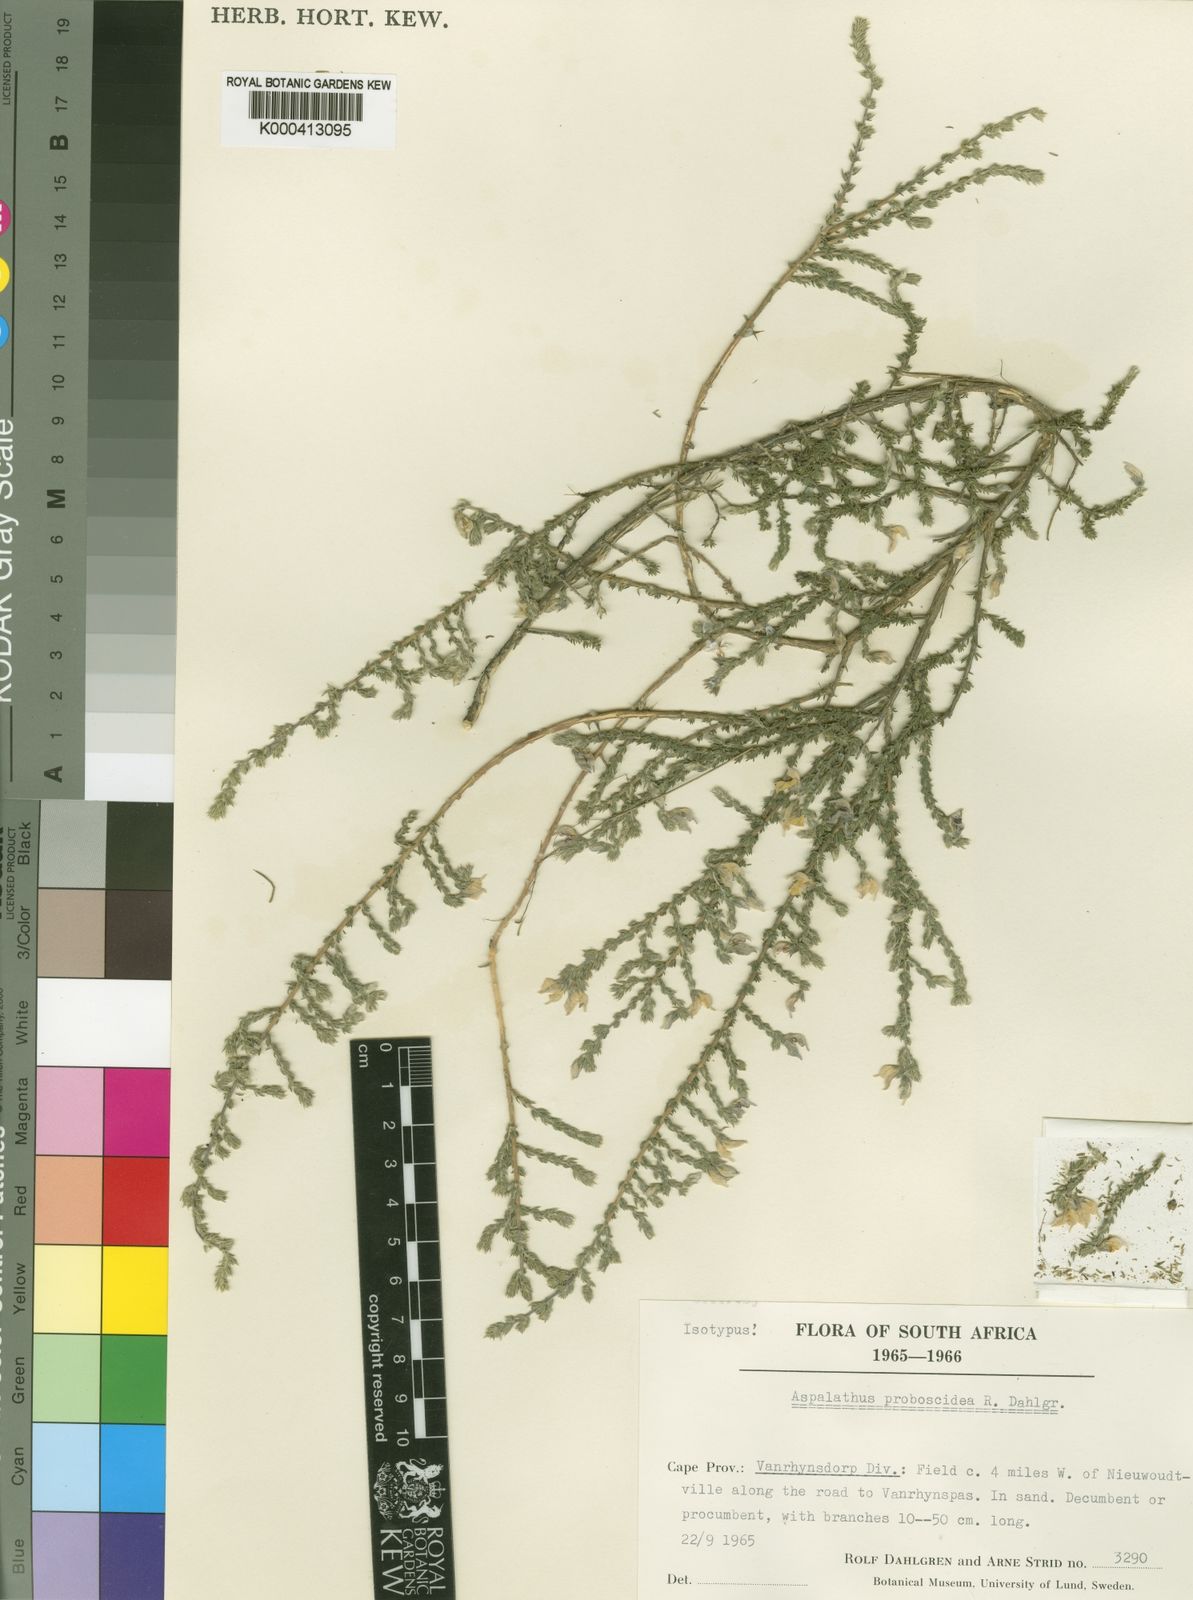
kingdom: Plantae
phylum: Tracheophyta
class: Magnoliopsida
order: Fabales
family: Fabaceae
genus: Aspalathus
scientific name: Aspalathus proboscidea
